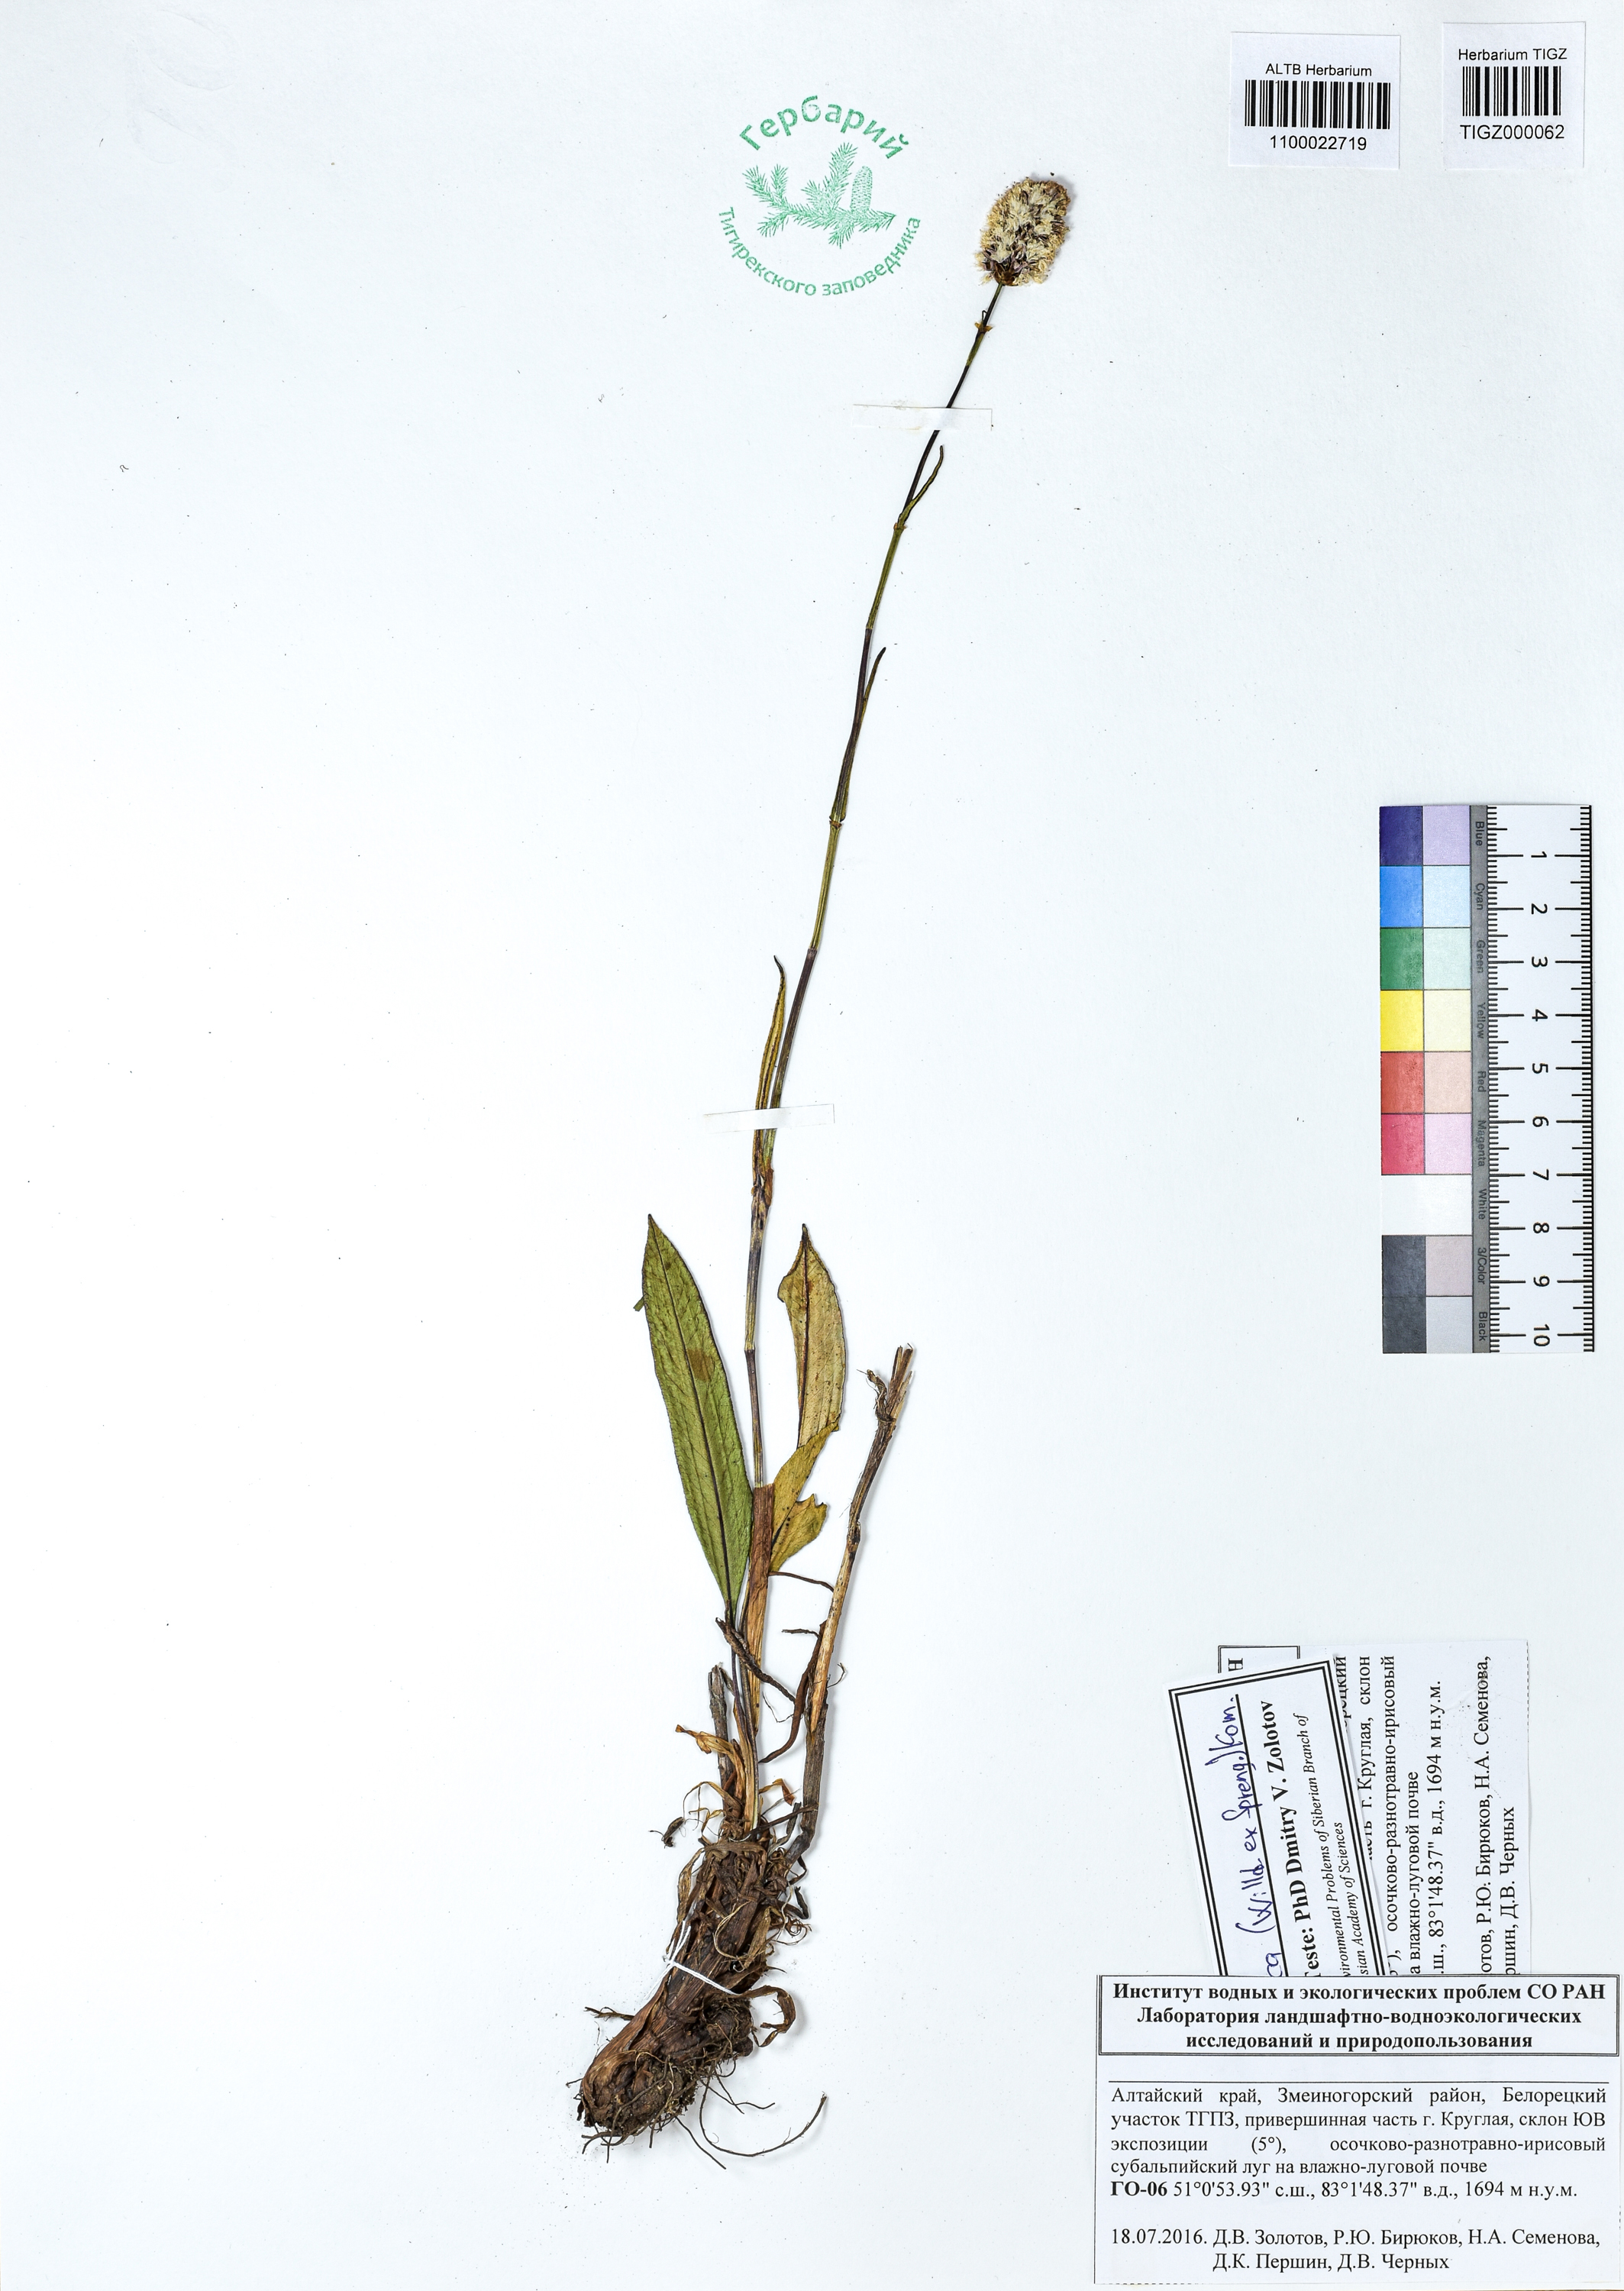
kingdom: Plantae
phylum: Tracheophyta
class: Magnoliopsida
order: Caryophyllales
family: Polygonaceae
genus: Bistorta
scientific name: Bistorta elliptica
